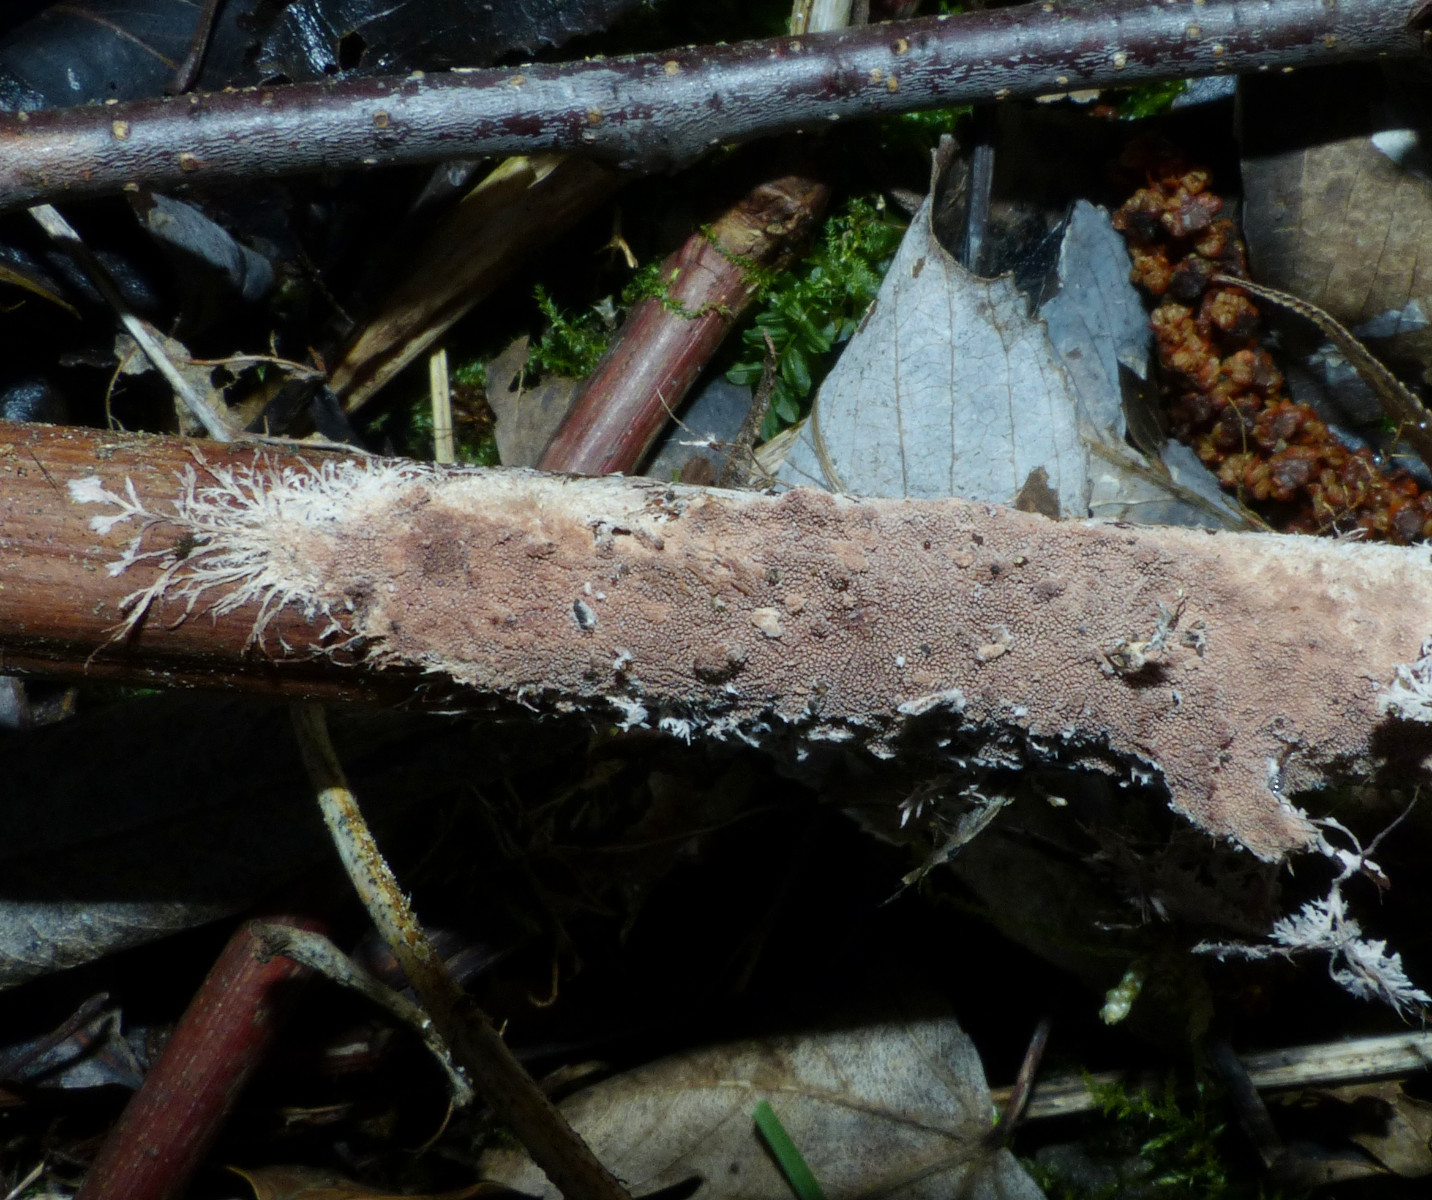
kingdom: Fungi
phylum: Basidiomycota
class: Agaricomycetes
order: Polyporales
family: Steccherinaceae
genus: Steccherinum
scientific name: Steccherinum fimbriatum
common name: trådet skønpig
